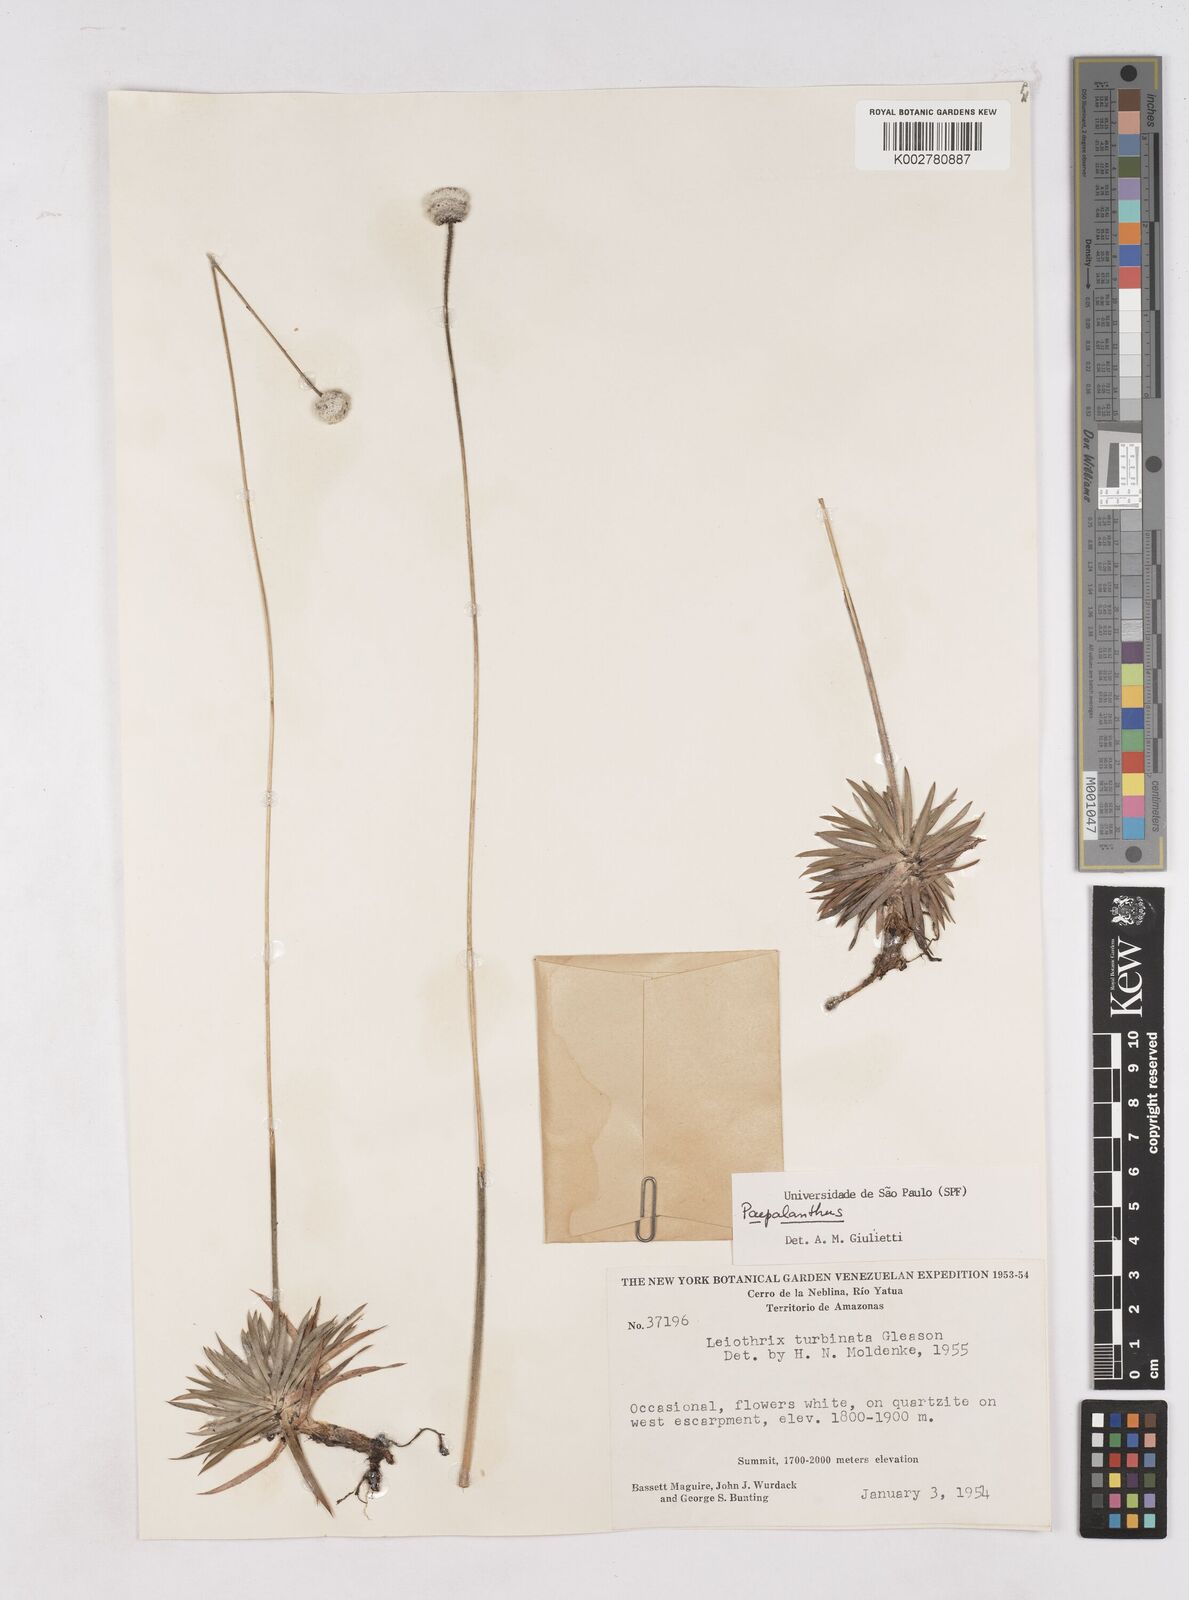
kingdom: Plantae
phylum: Tracheophyta
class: Liliopsida
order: Poales
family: Eriocaulaceae
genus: Paepalanthus
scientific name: Paepalanthus
